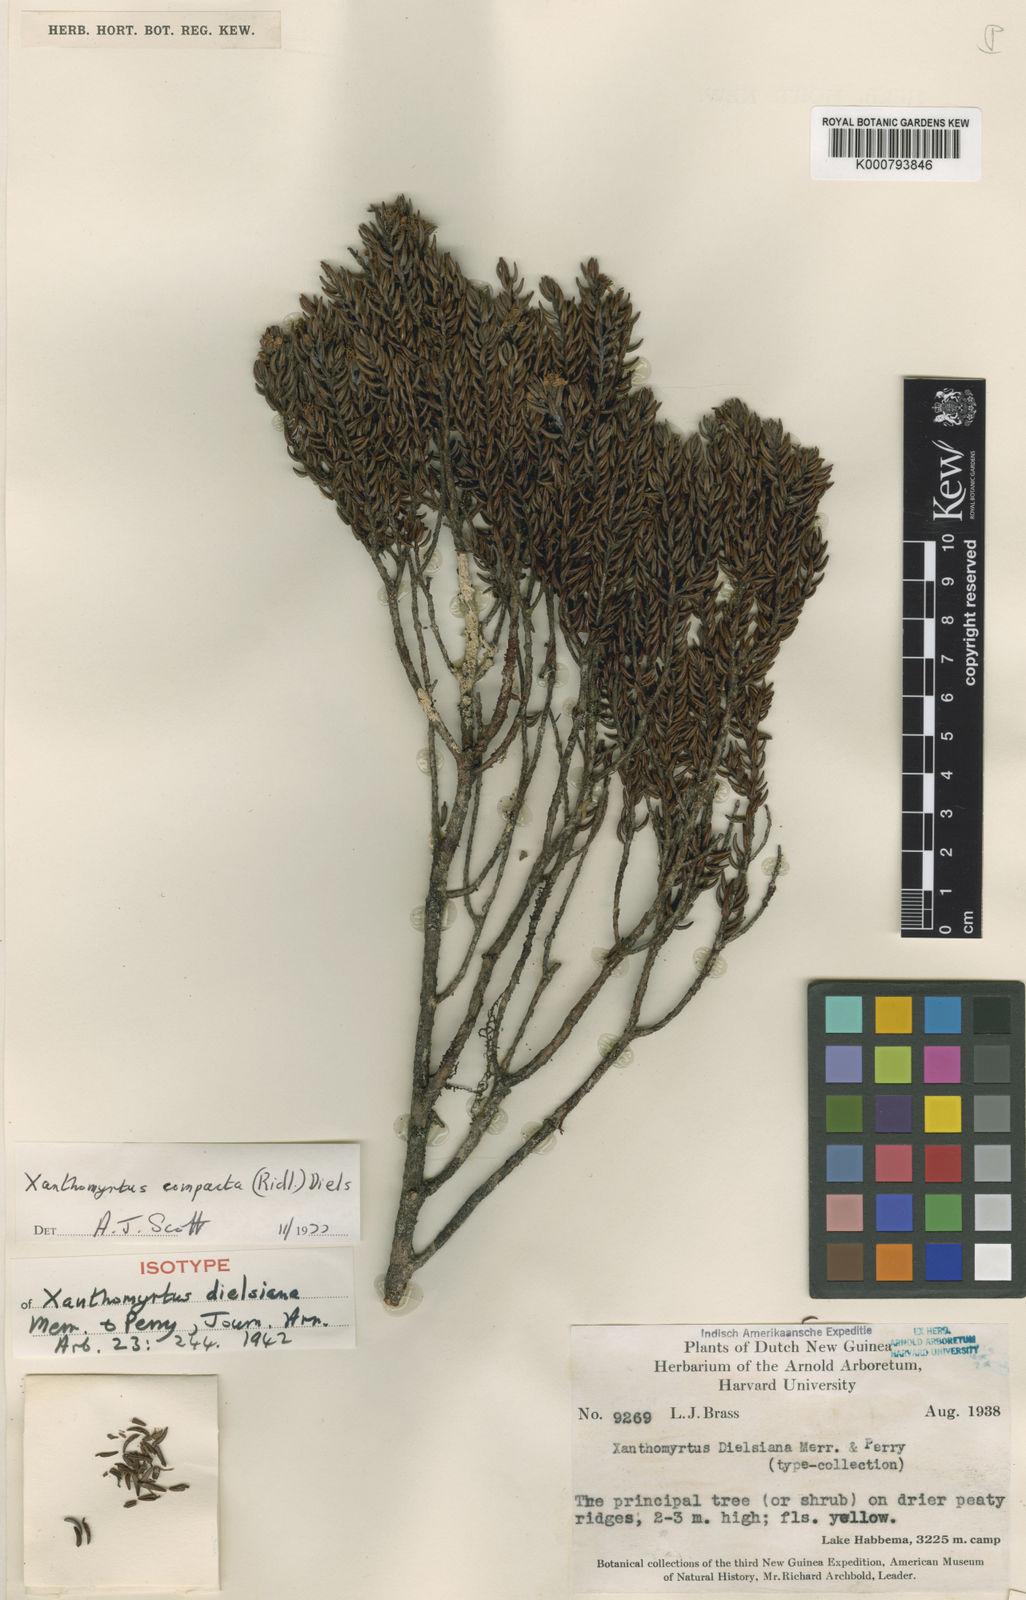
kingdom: Plantae
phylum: Tracheophyta
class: Magnoliopsida
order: Myrtales
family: Myrtaceae
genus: Xanthomyrtus
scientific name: Xanthomyrtus compacta
